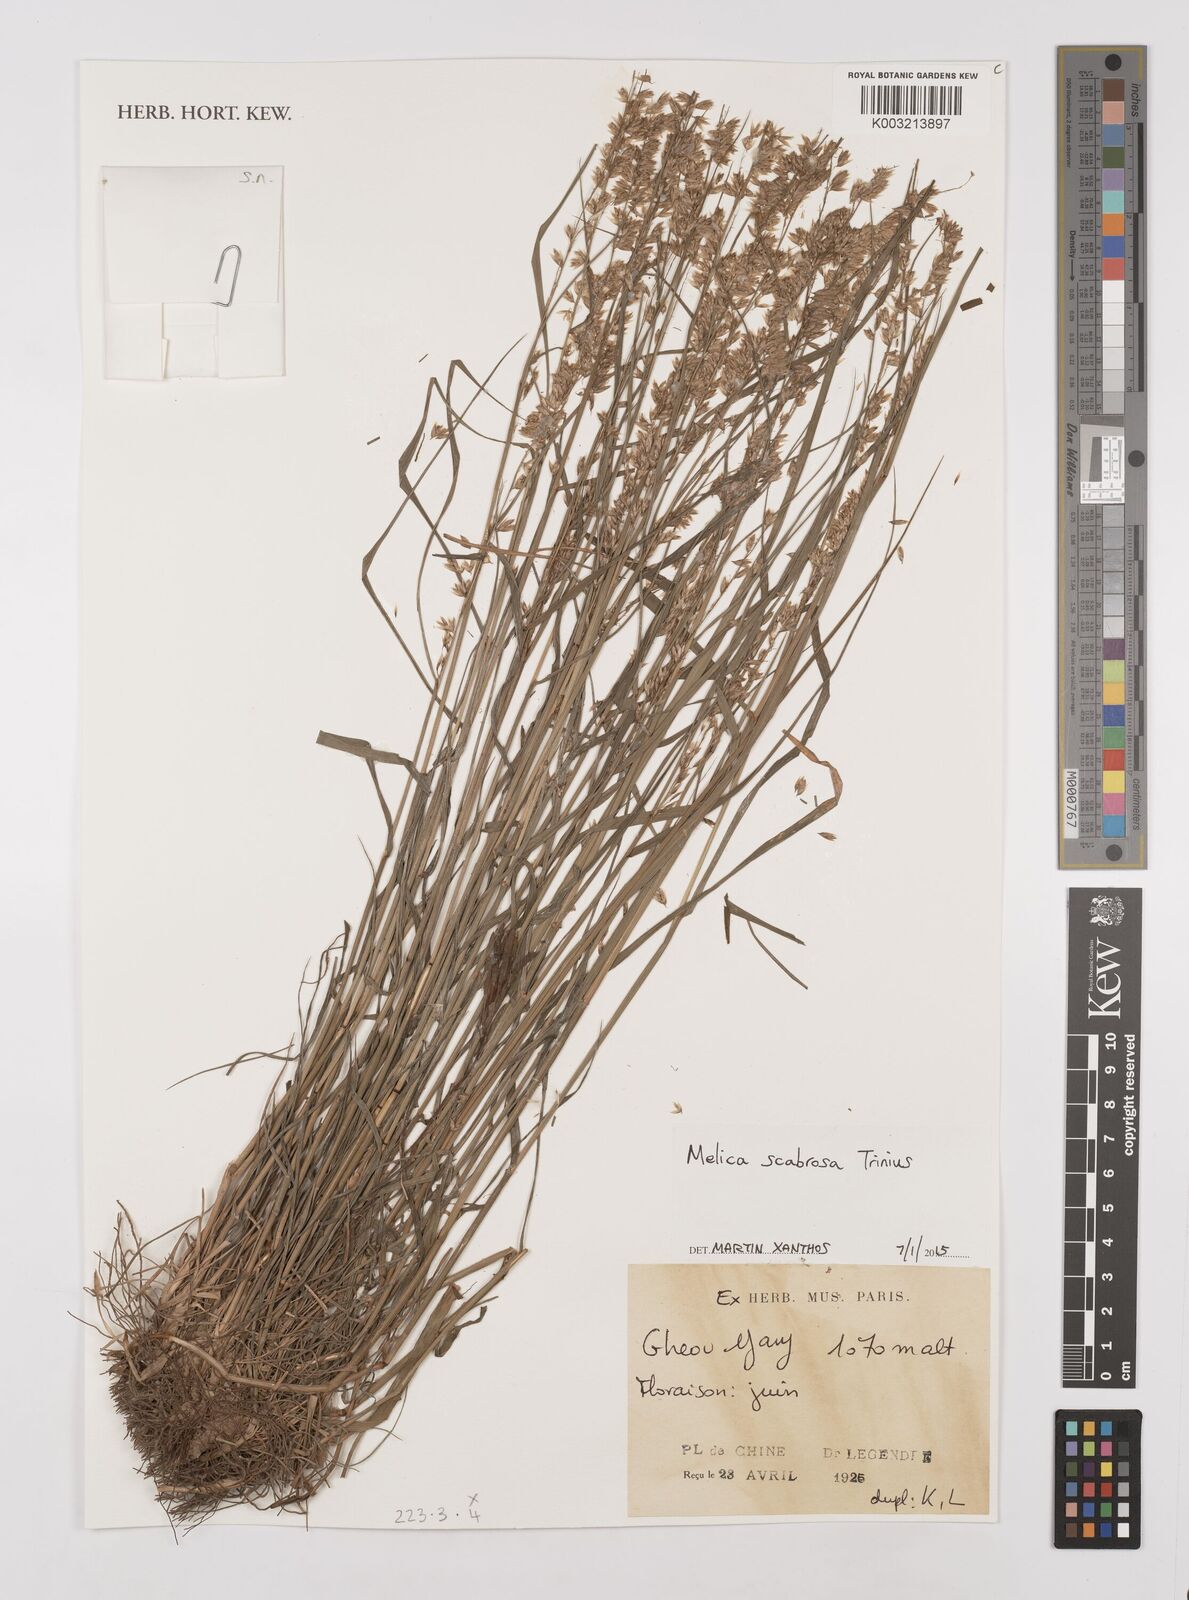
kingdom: Plantae
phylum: Tracheophyta
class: Liliopsida
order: Poales
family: Poaceae
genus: Melica
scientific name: Melica scabrosa
